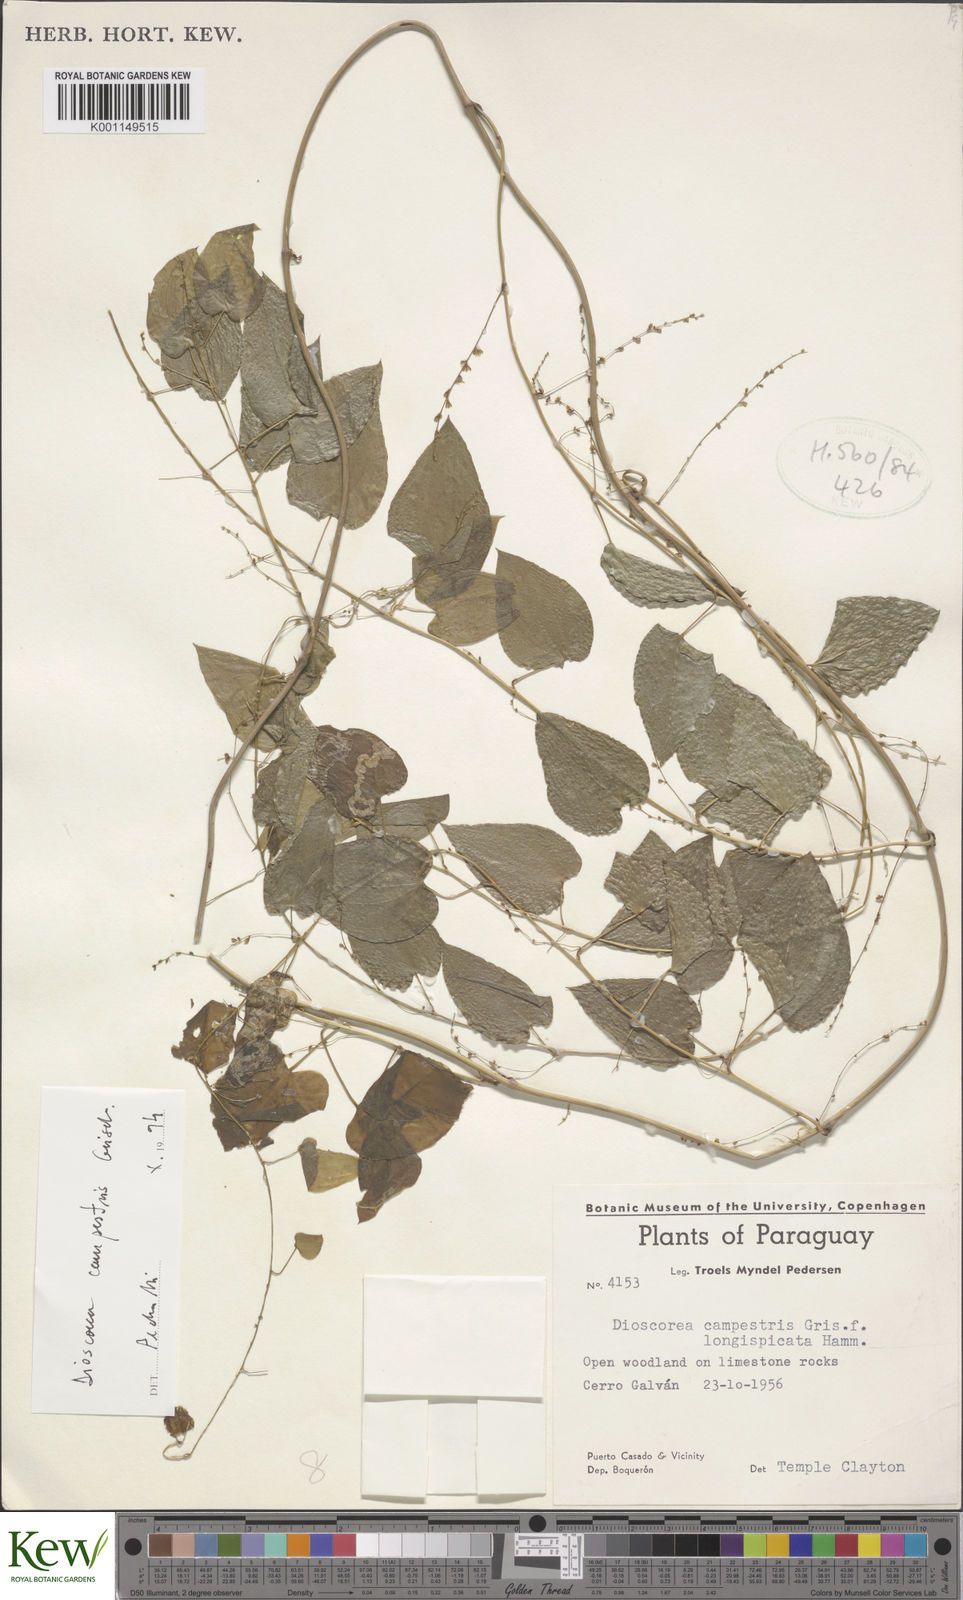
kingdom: Plantae
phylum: Tracheophyta
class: Liliopsida
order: Dioscoreales
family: Dioscoreaceae
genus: Dioscorea
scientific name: Dioscorea campestris
